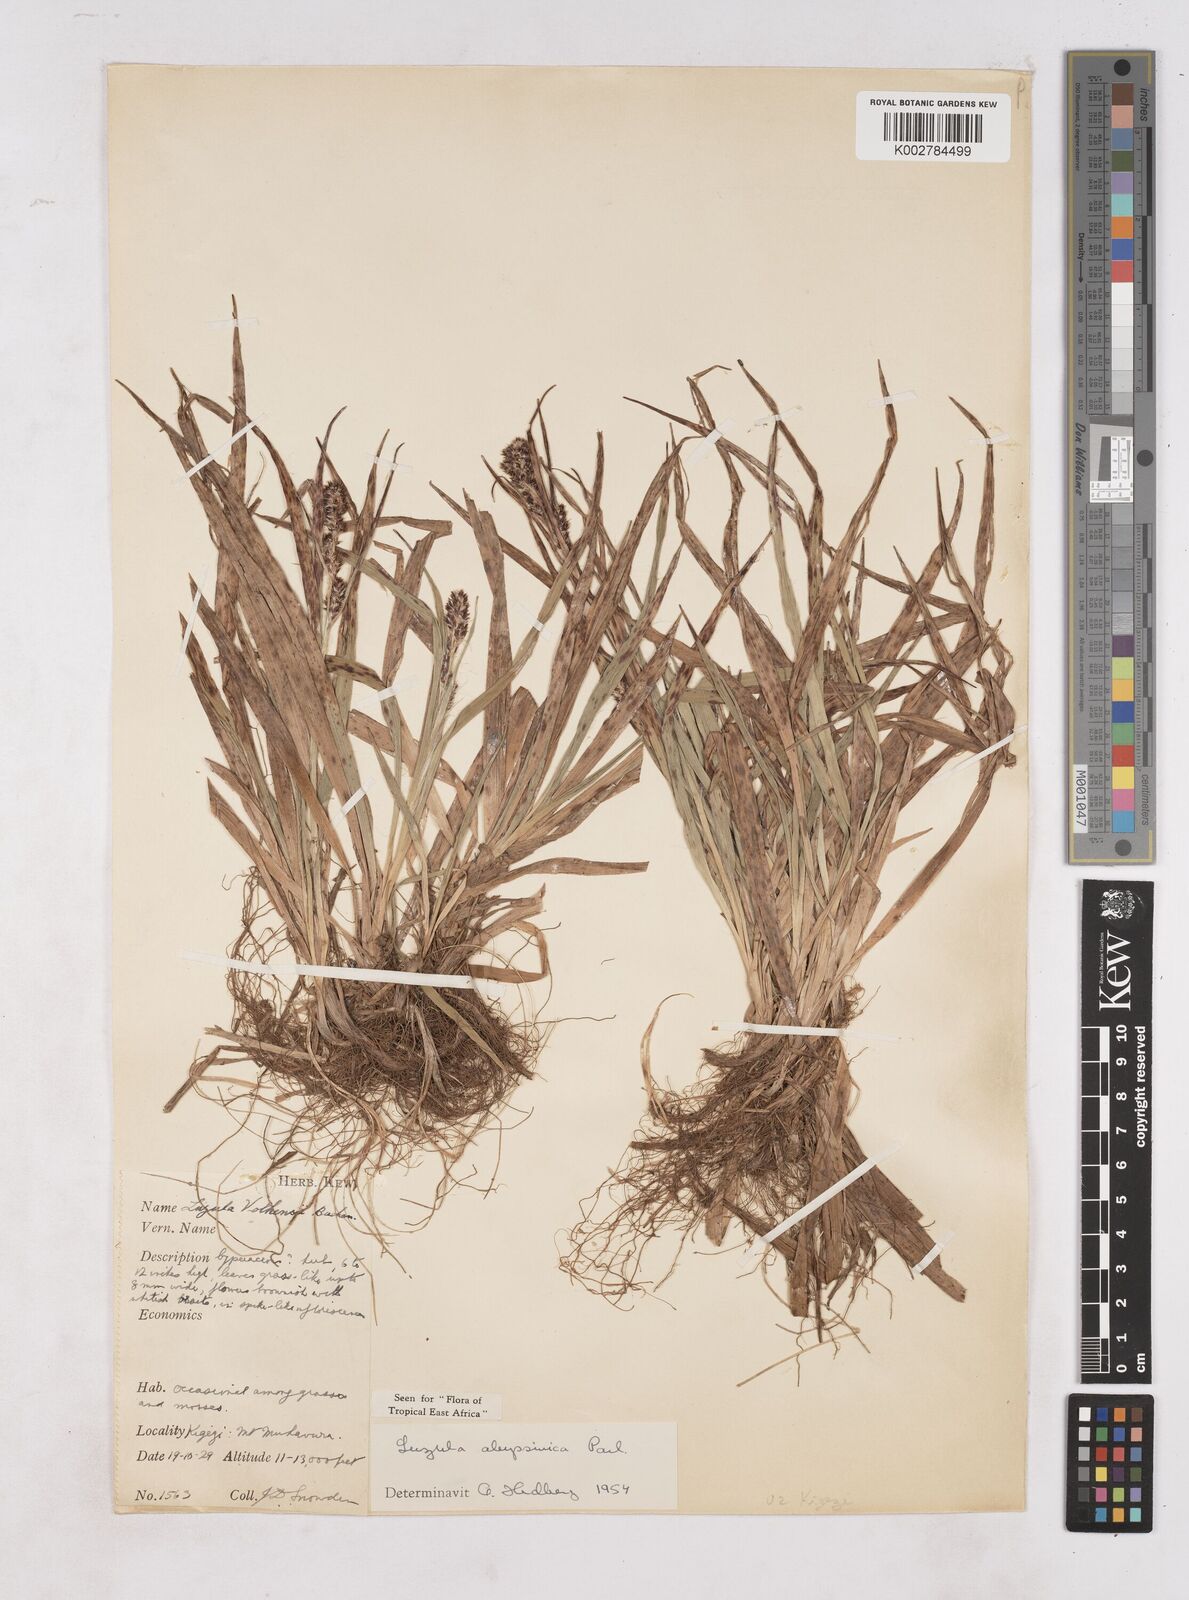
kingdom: Plantae
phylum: Tracheophyta
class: Liliopsida
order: Poales
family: Juncaceae
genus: Luzula
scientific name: Luzula abyssinica
